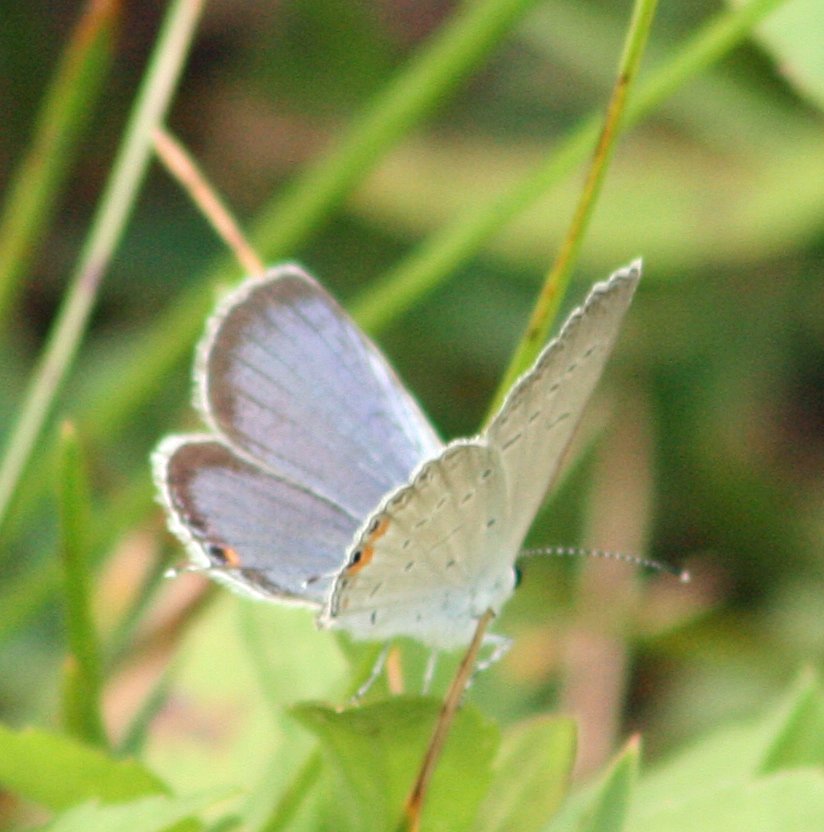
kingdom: Animalia
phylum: Arthropoda
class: Insecta
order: Lepidoptera
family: Lycaenidae
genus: Elkalyce
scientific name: Elkalyce comyntas
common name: Eastern Tailed-Blue
